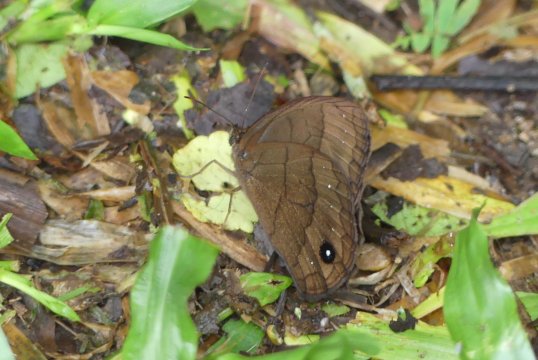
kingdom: Animalia
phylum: Arthropoda
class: Insecta
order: Lepidoptera
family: Nymphalidae
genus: Forsterinaria
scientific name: Forsterinaria neonympha
